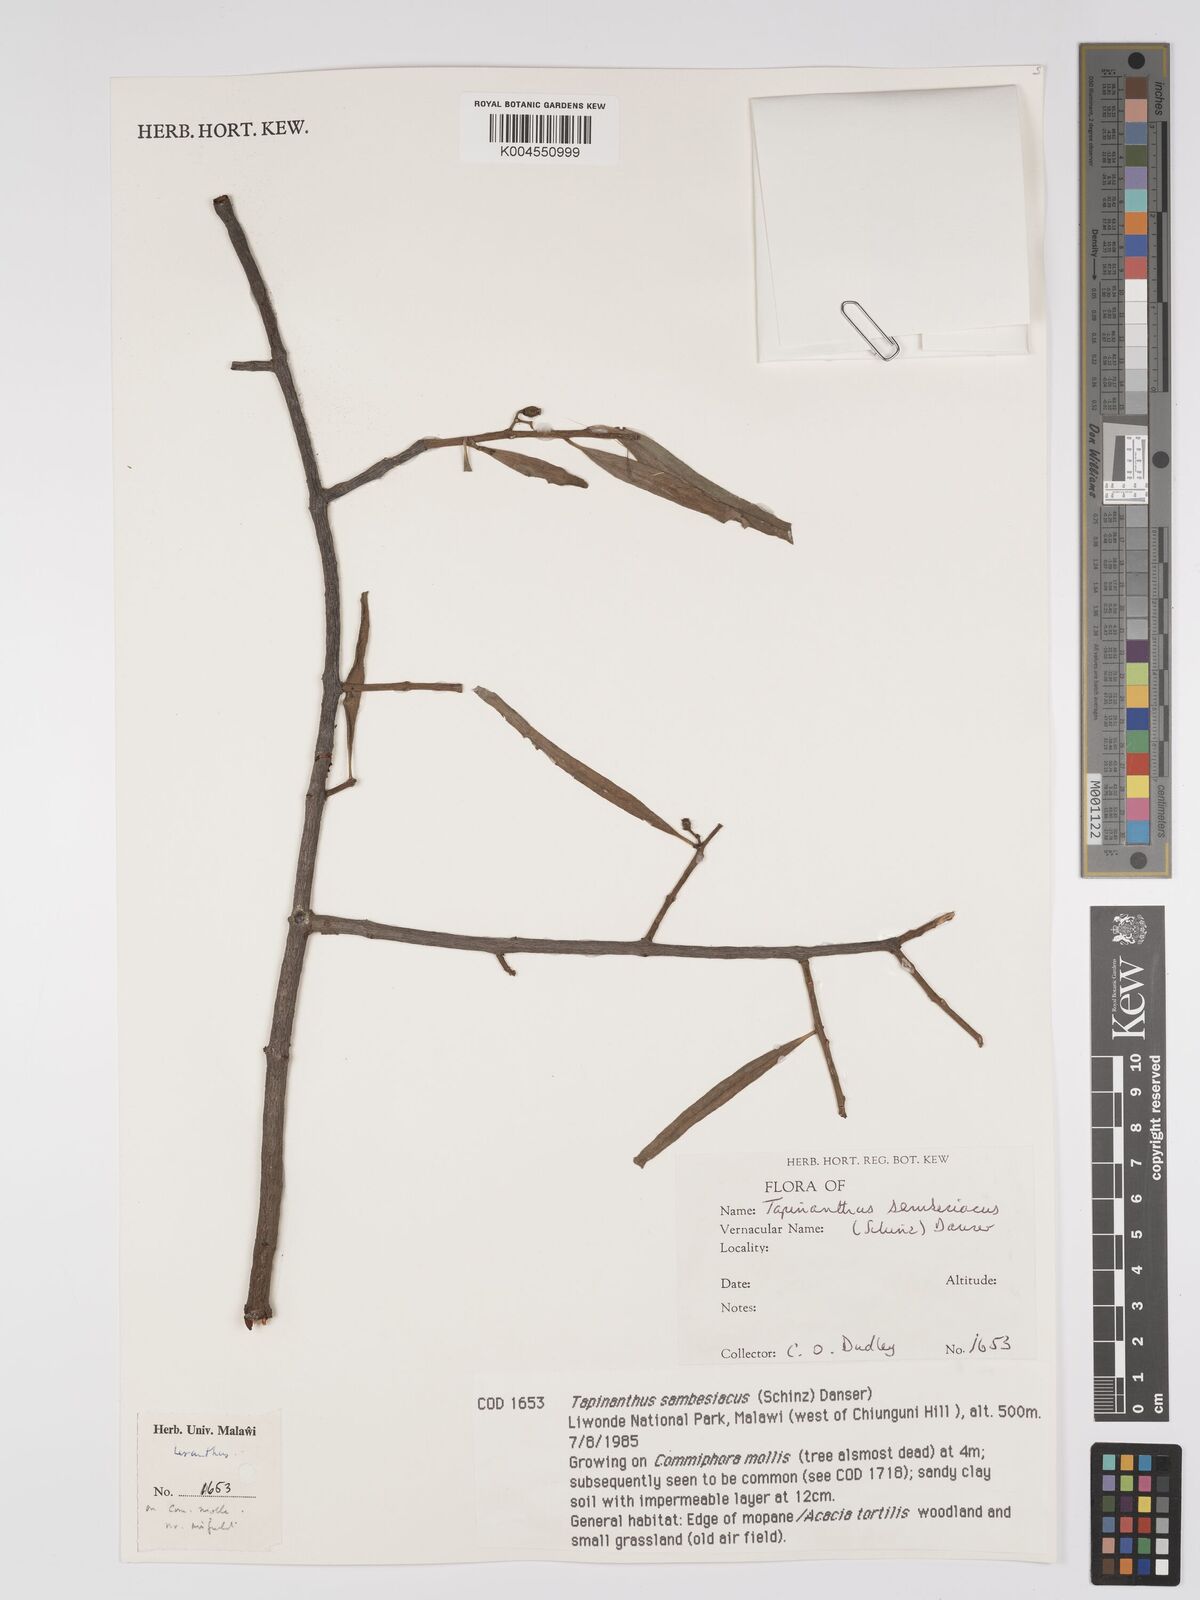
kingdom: Plantae
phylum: Tracheophyta
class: Magnoliopsida
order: Santalales
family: Loranthaceae
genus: Agelanthus
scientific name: Agelanthus sambesiacus
